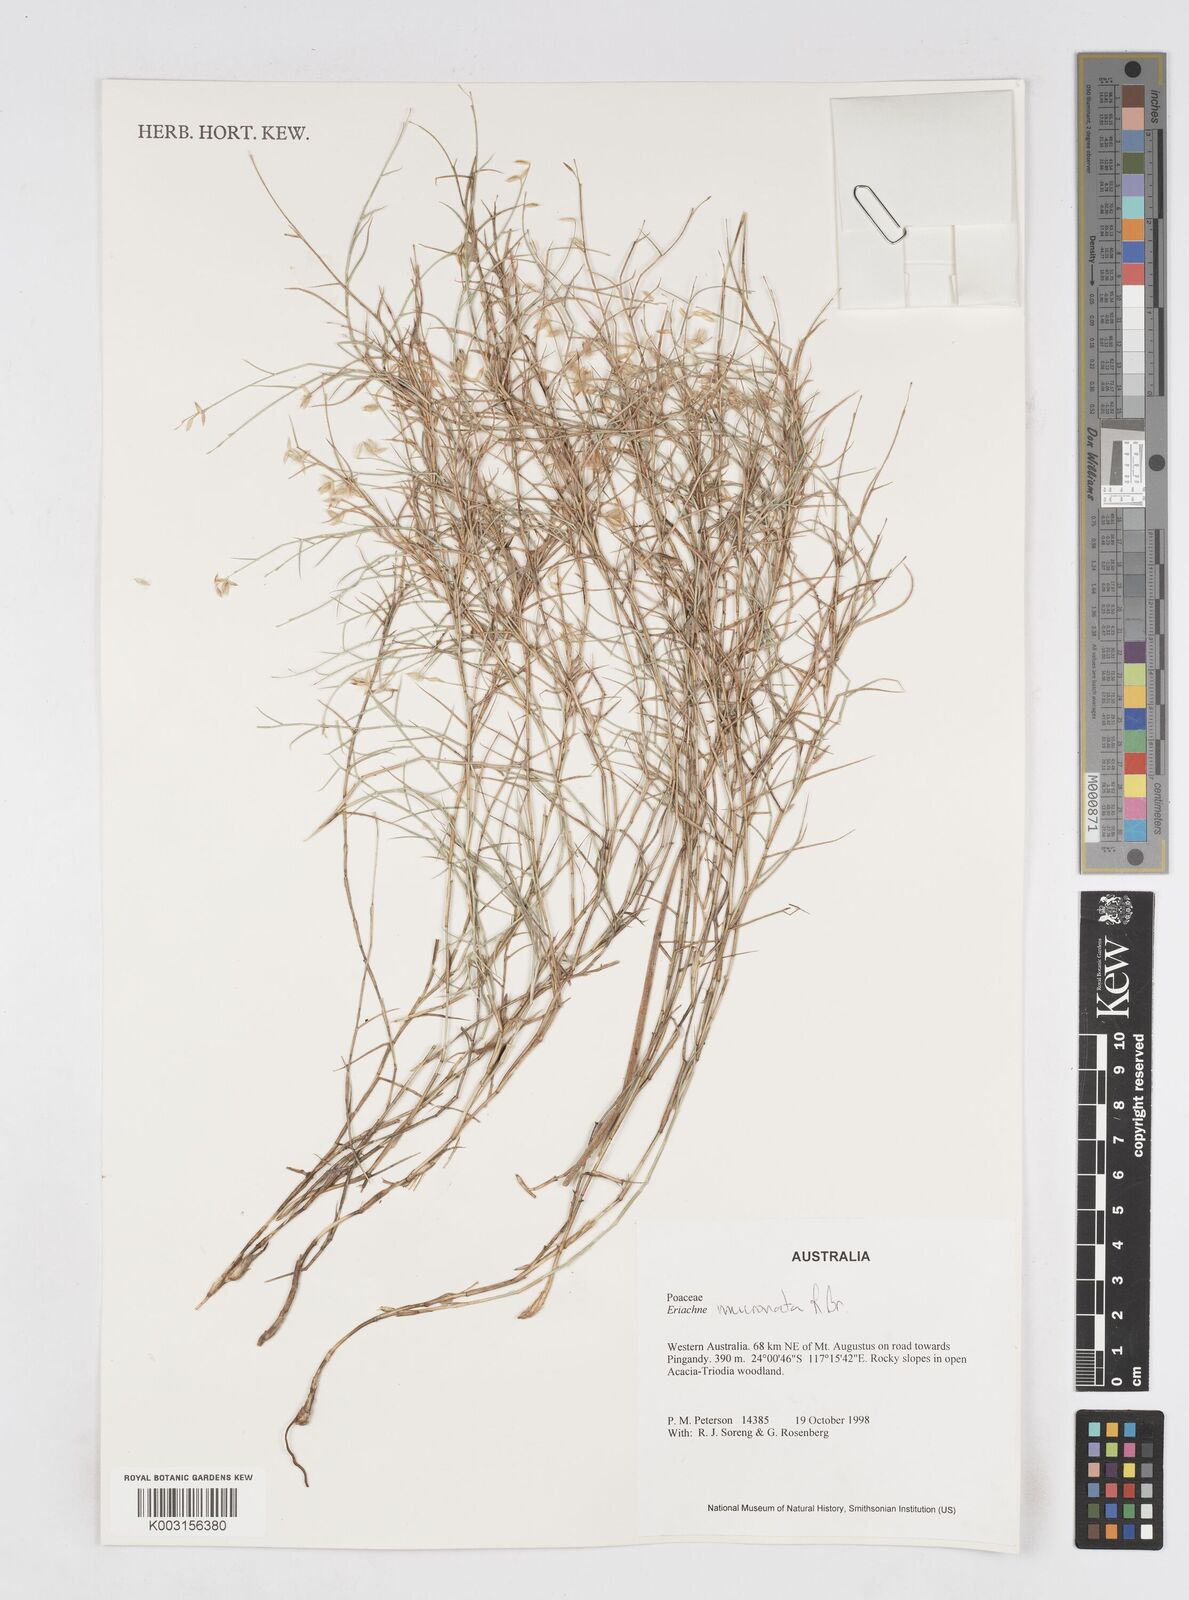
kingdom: Plantae
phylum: Tracheophyta
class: Liliopsida
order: Poales
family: Poaceae
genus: Eriachne
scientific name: Eriachne mucronata
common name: Mountain wanderrie grass
